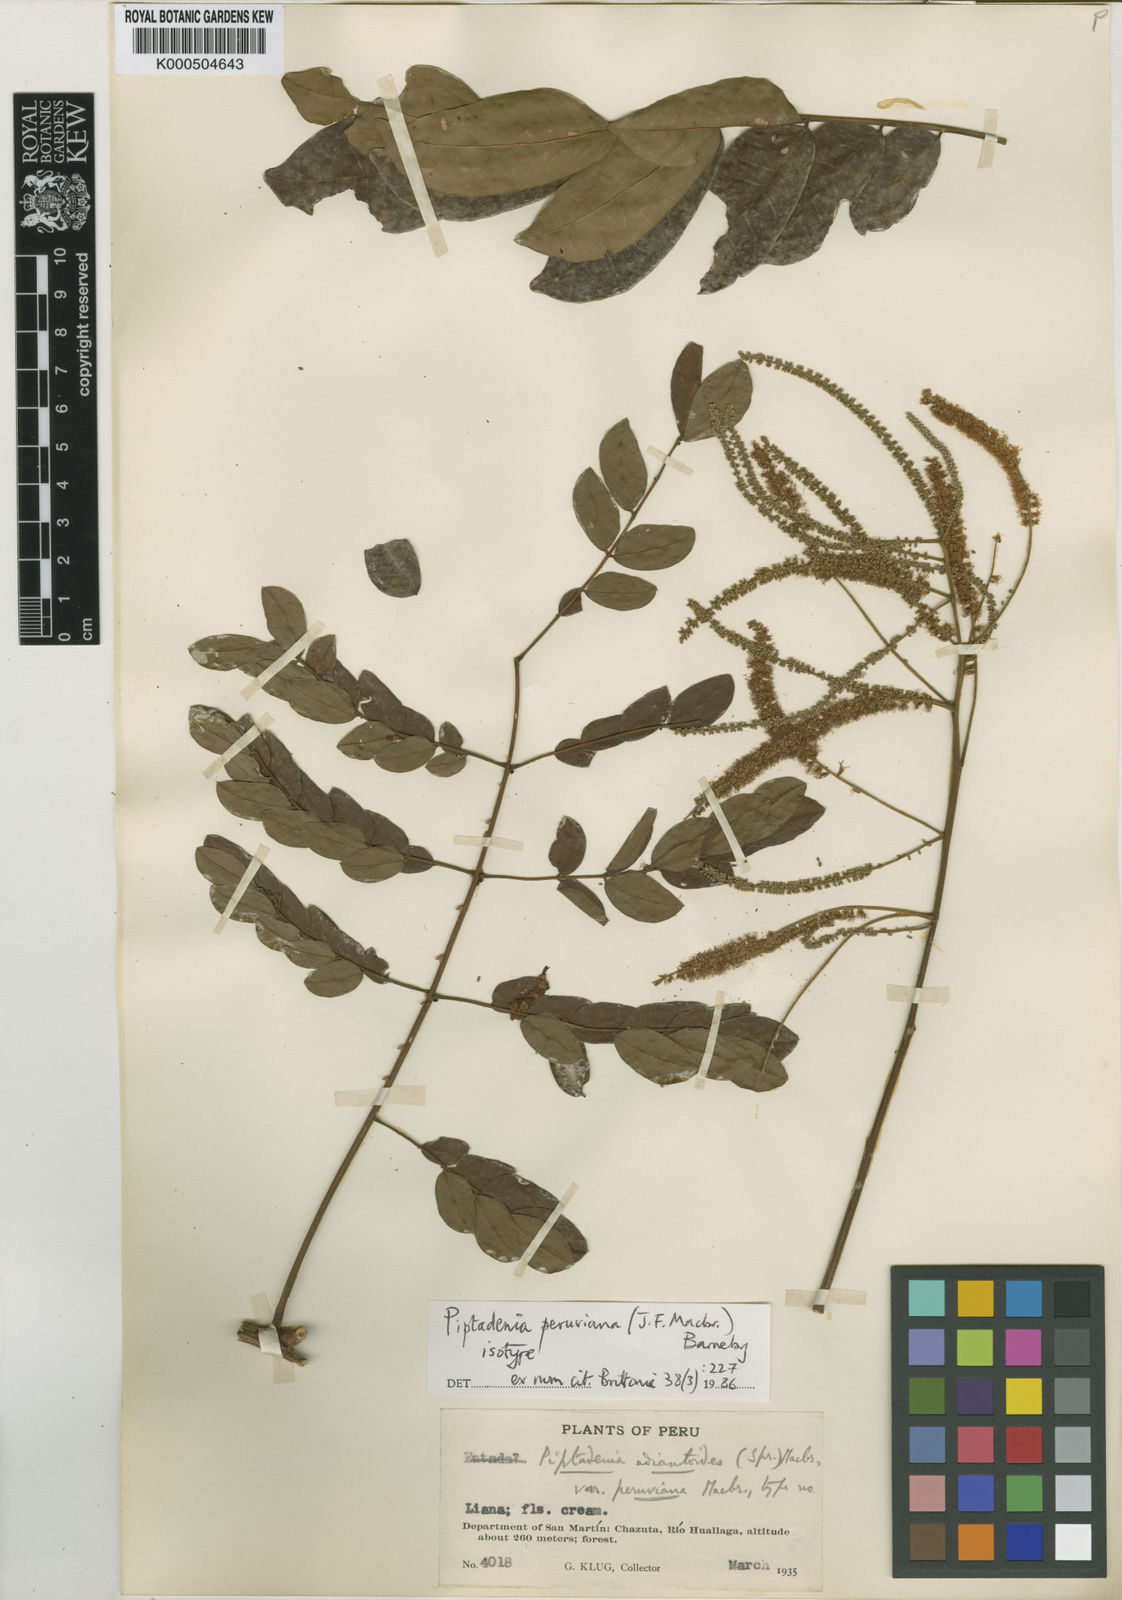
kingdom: Plantae
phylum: Tracheophyta
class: Magnoliopsida
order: Fabales
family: Fabaceae
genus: Piptadenia
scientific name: Piptadenia peruviana
